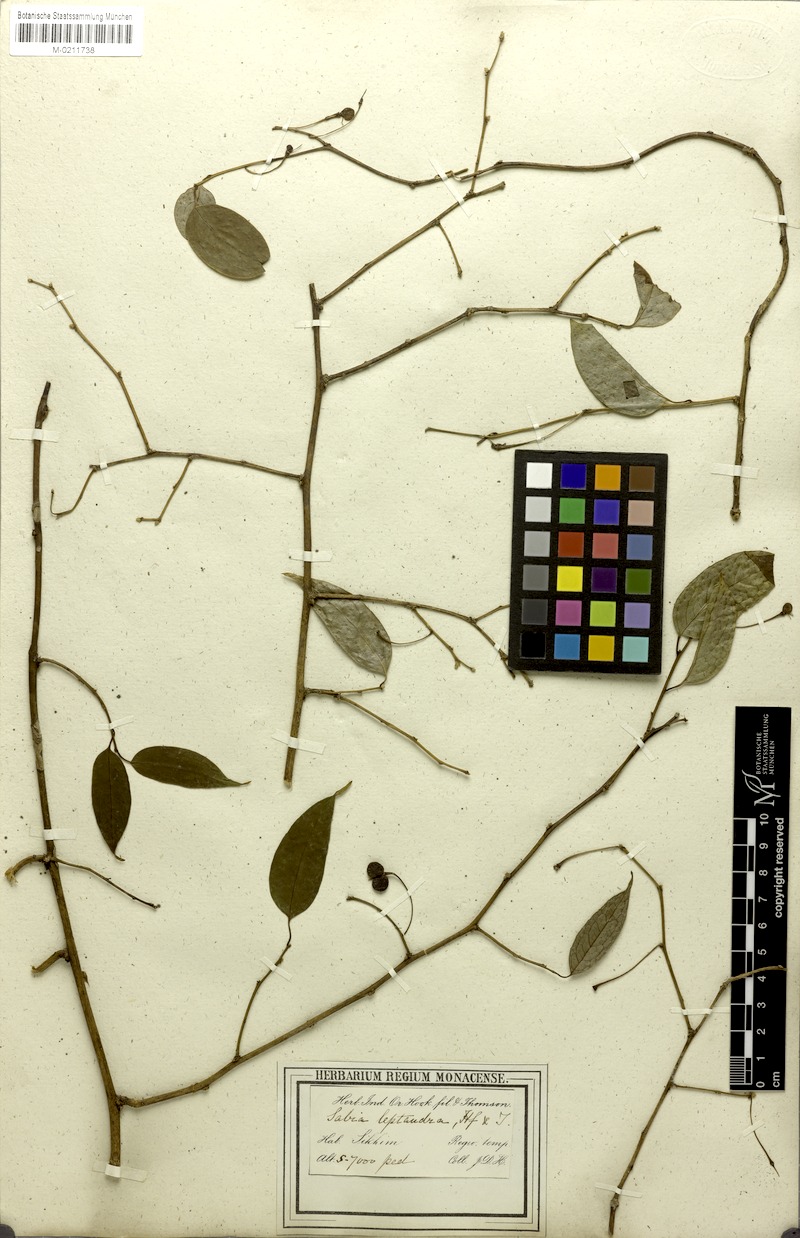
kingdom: Plantae
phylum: Tracheophyta
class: Magnoliopsida
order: Proteales
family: Sabiaceae
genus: Sabia
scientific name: Sabia
